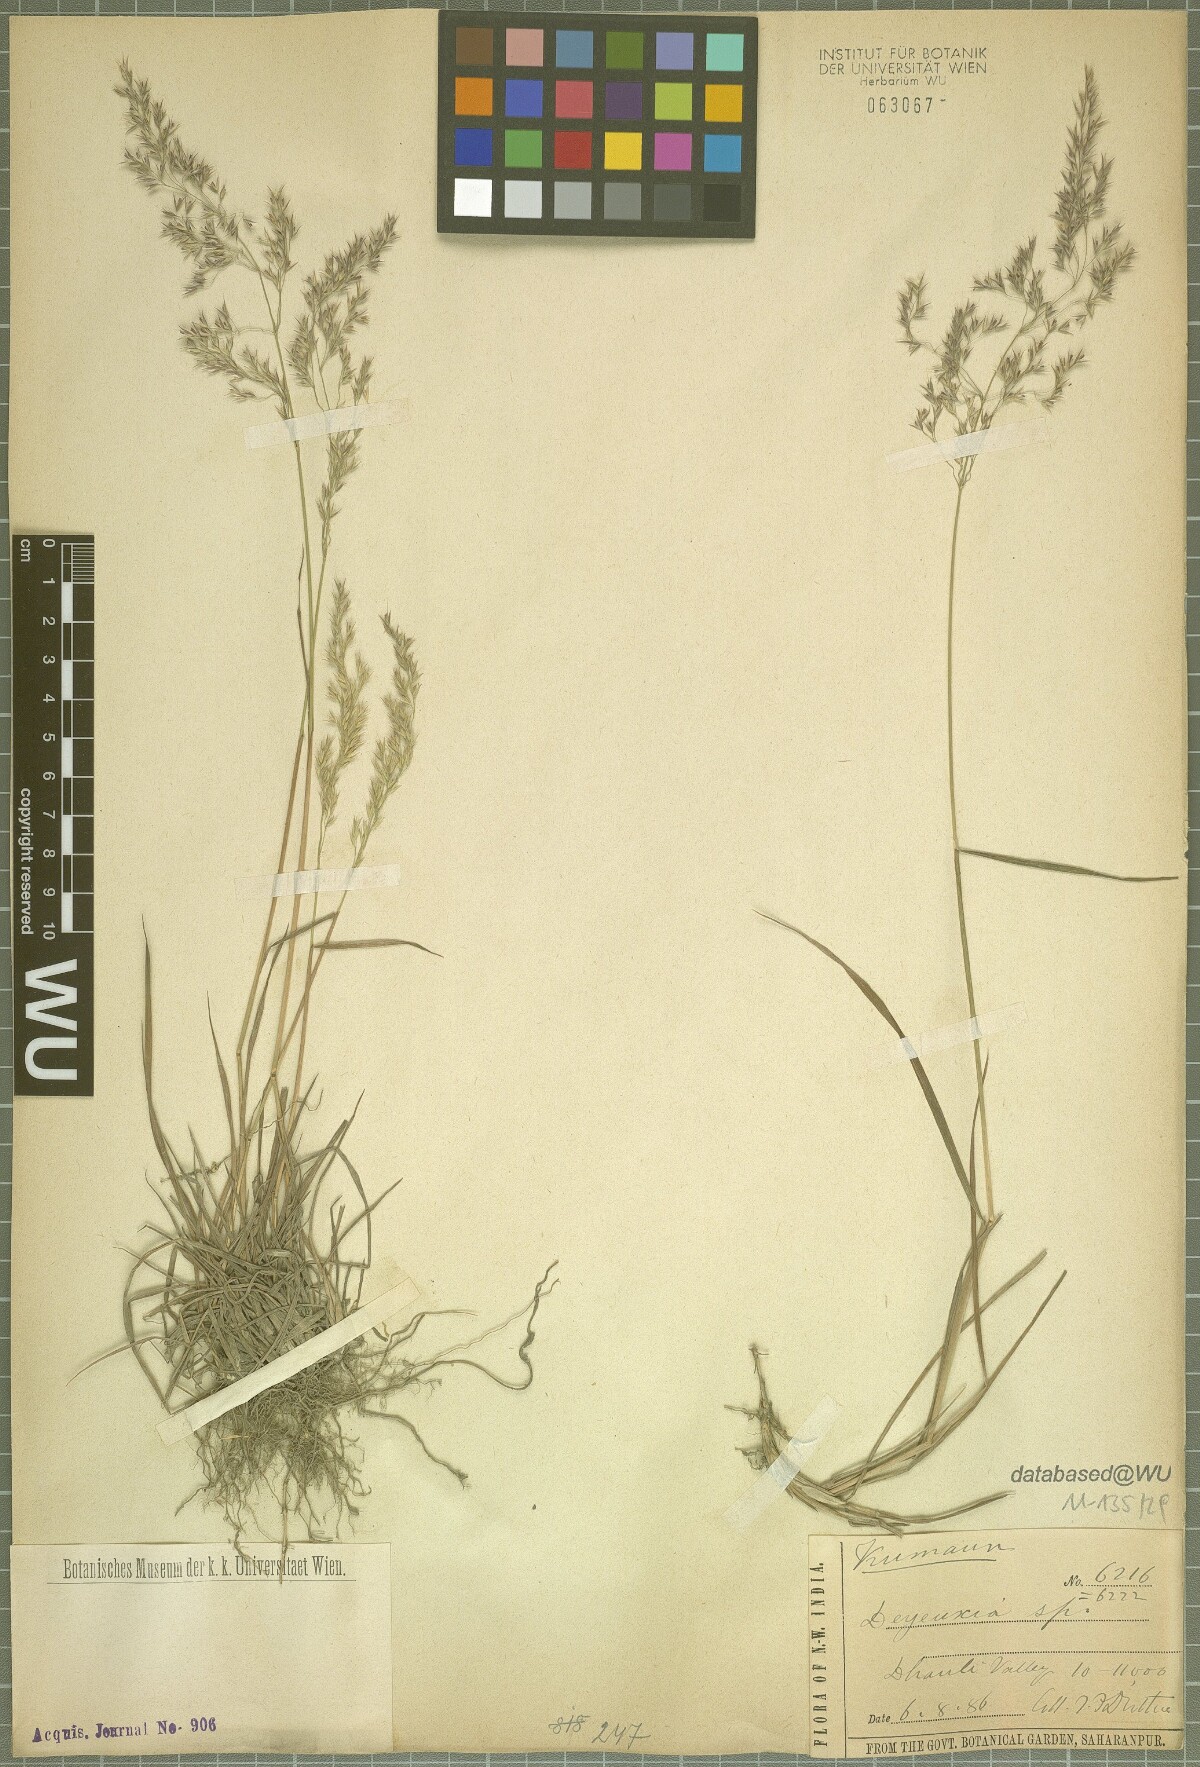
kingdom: Plantae
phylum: Tracheophyta
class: Liliopsida
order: Poales
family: Poaceae
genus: Calamagrostis
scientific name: Calamagrostis
